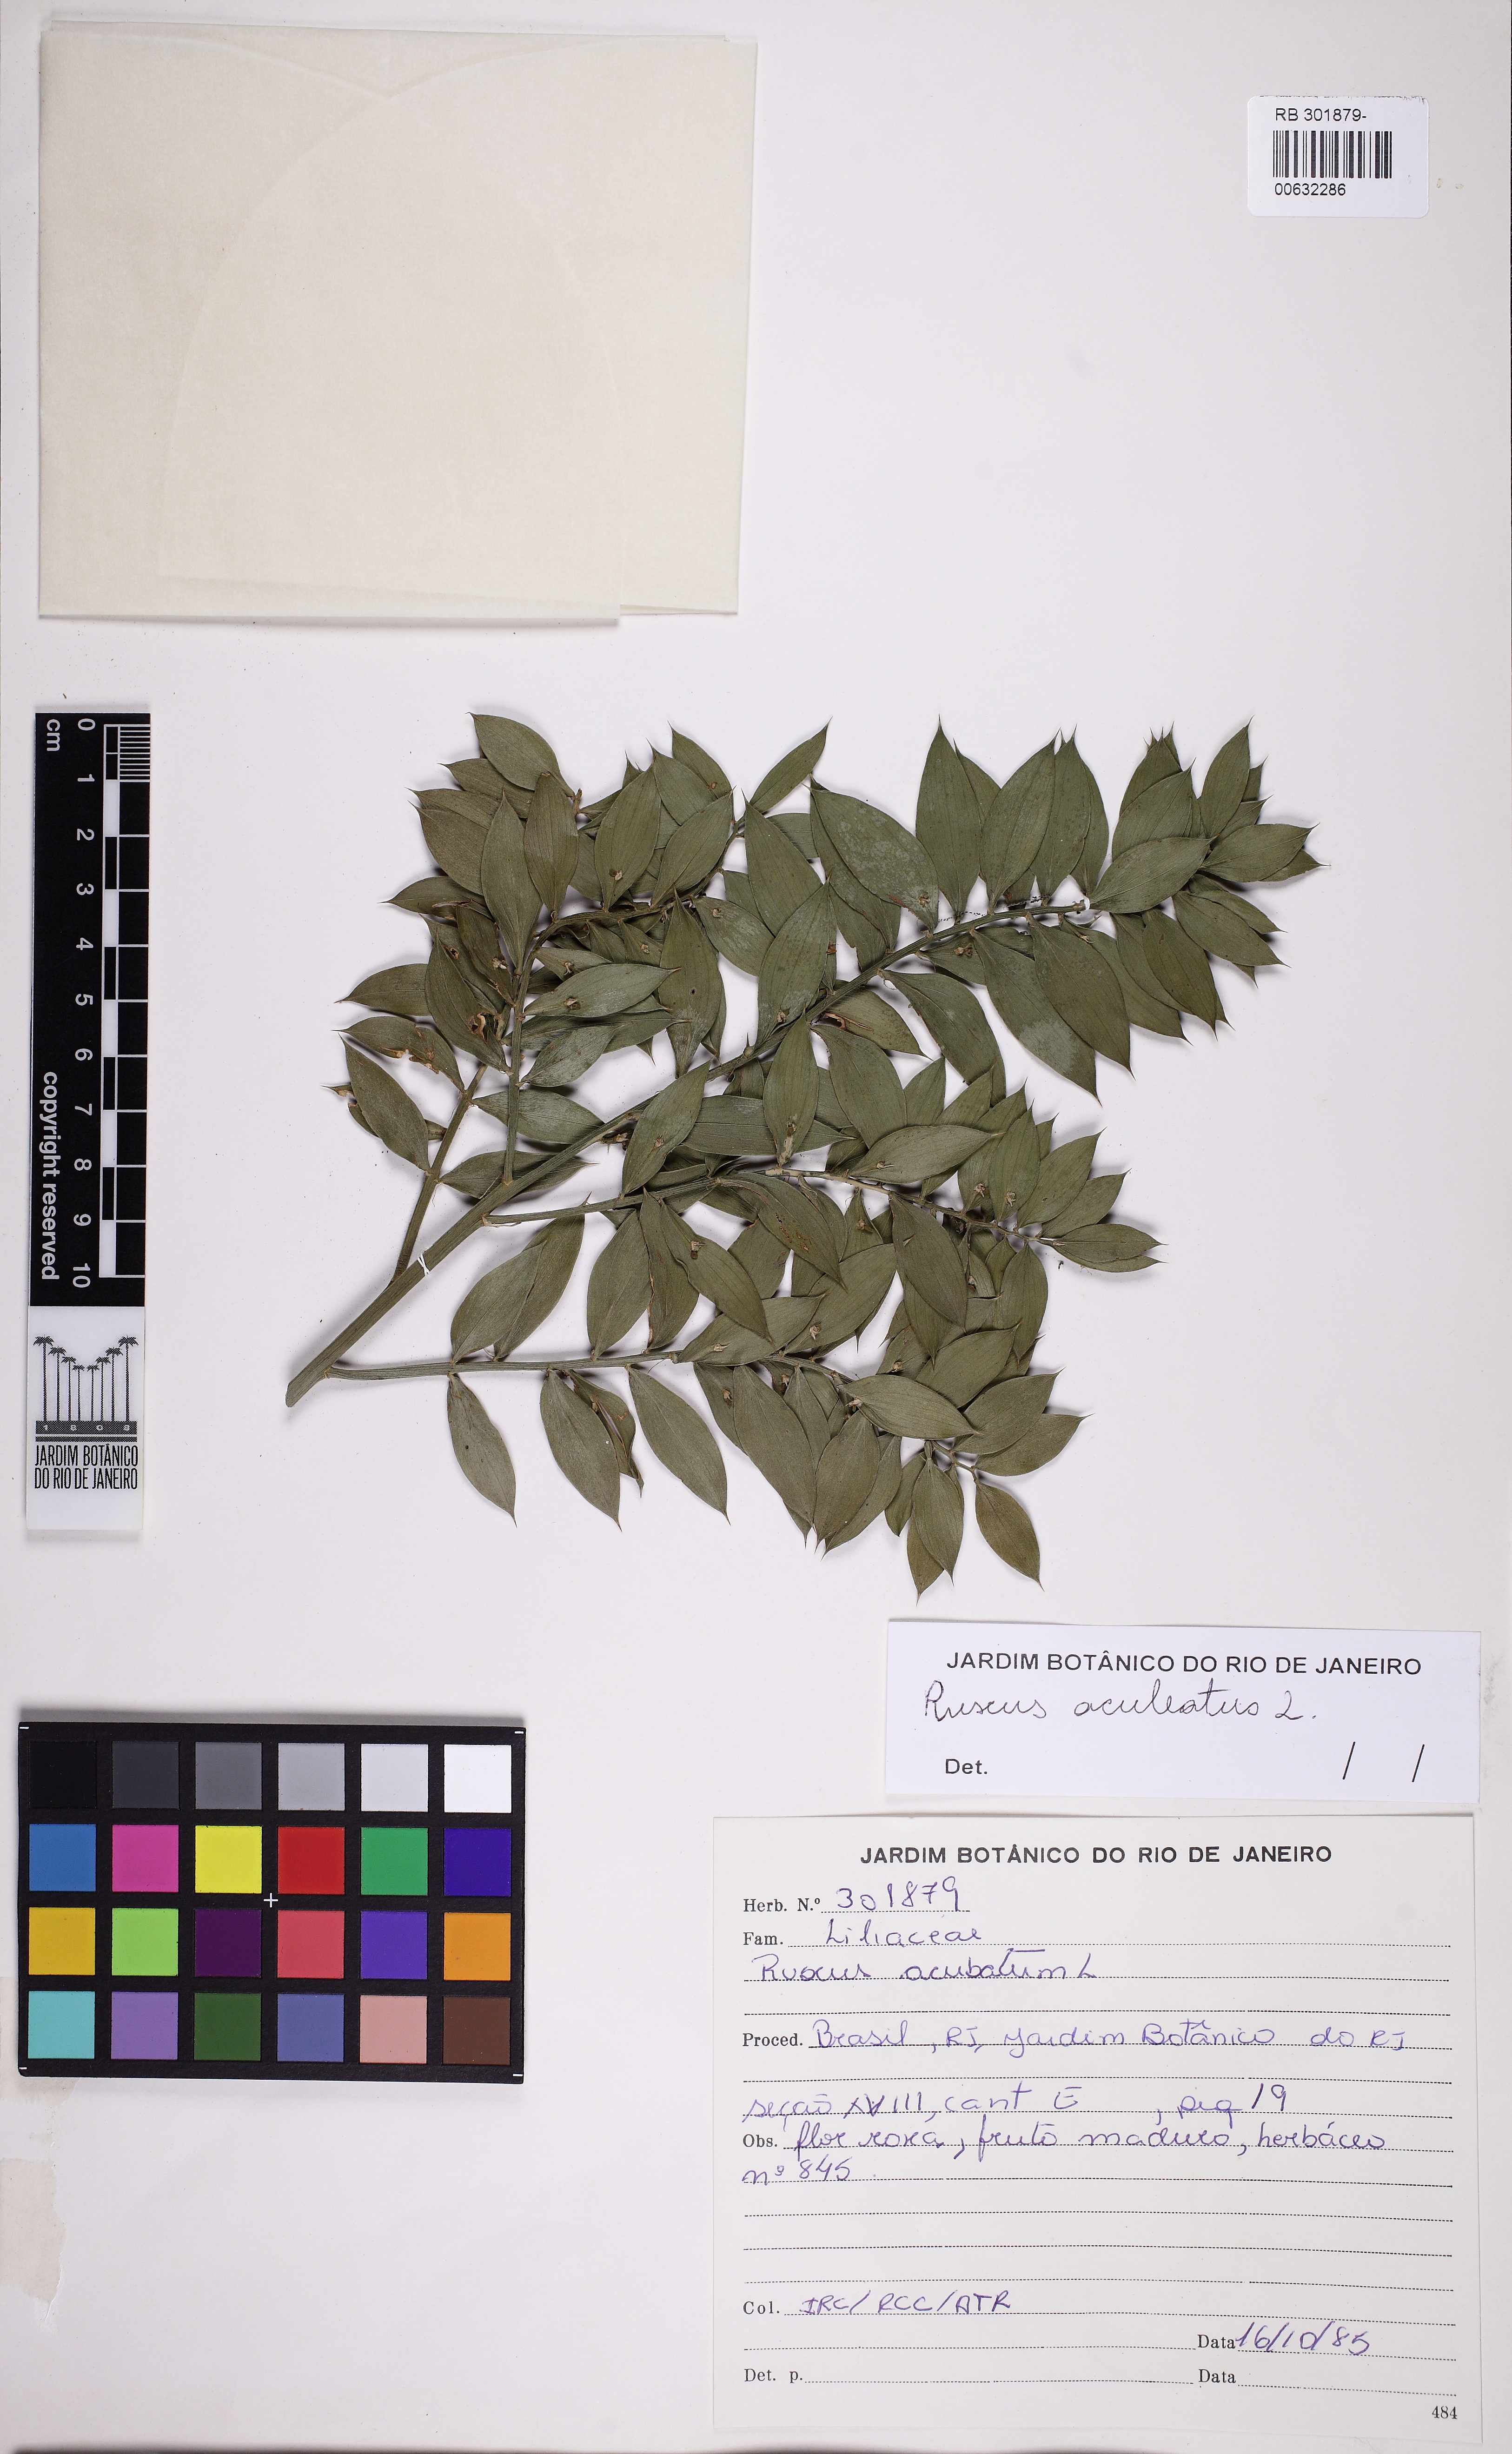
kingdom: Plantae
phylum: Tracheophyta
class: Liliopsida
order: Asparagales
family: Asparagaceae
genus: Ruscus
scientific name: Ruscus aculeatus
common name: Butcher's-broom
